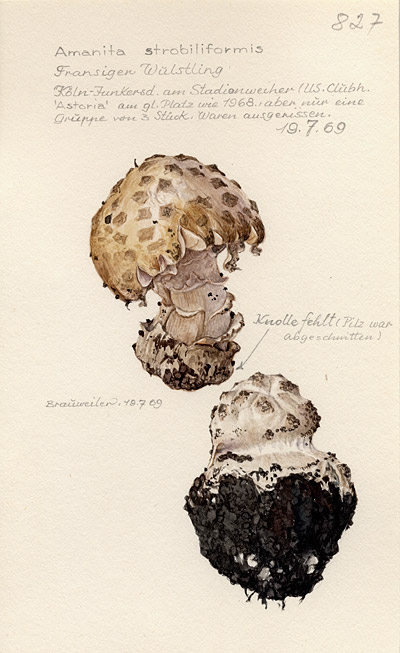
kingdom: Fungi
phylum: Basidiomycota
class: Agaricomycetes
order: Agaricales
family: Amanitaceae
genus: Amanita
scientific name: Amanita
